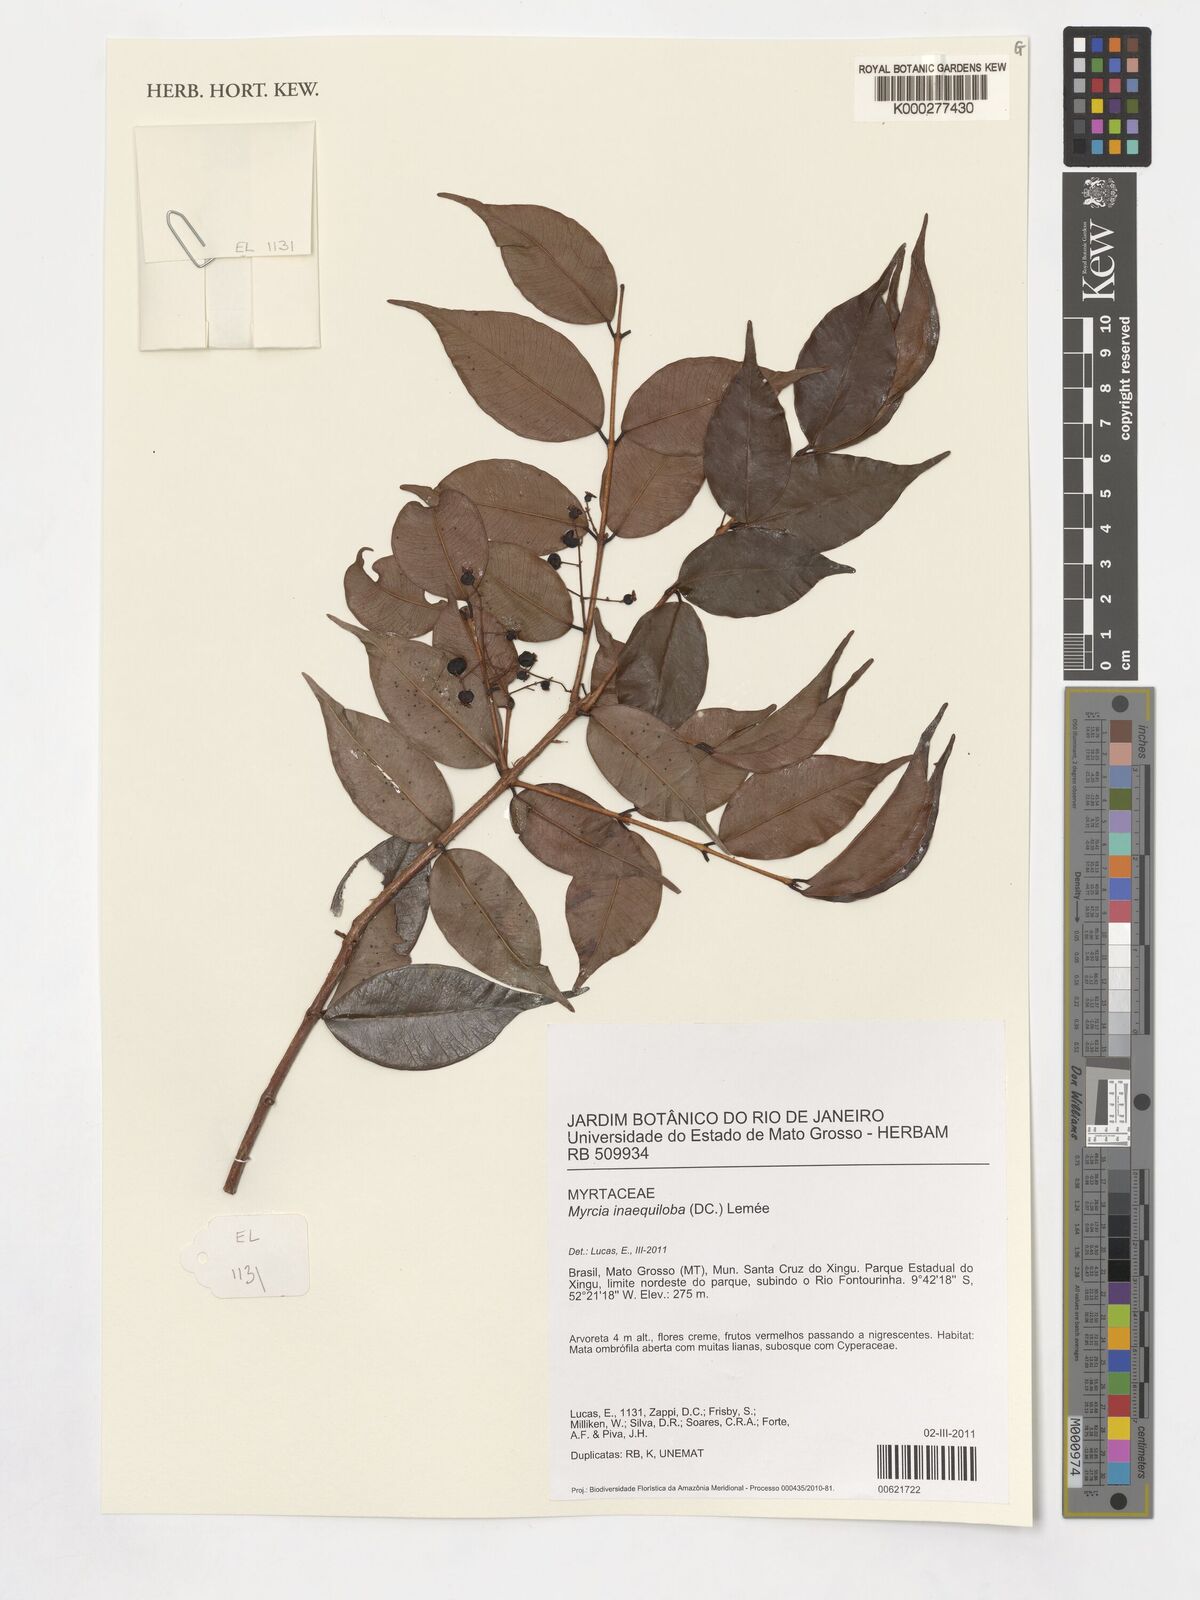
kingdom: Plantae
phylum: Tracheophyta
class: Magnoliopsida
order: Myrtales
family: Myrtaceae
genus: Myrcia
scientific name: Myrcia inaequiloba
